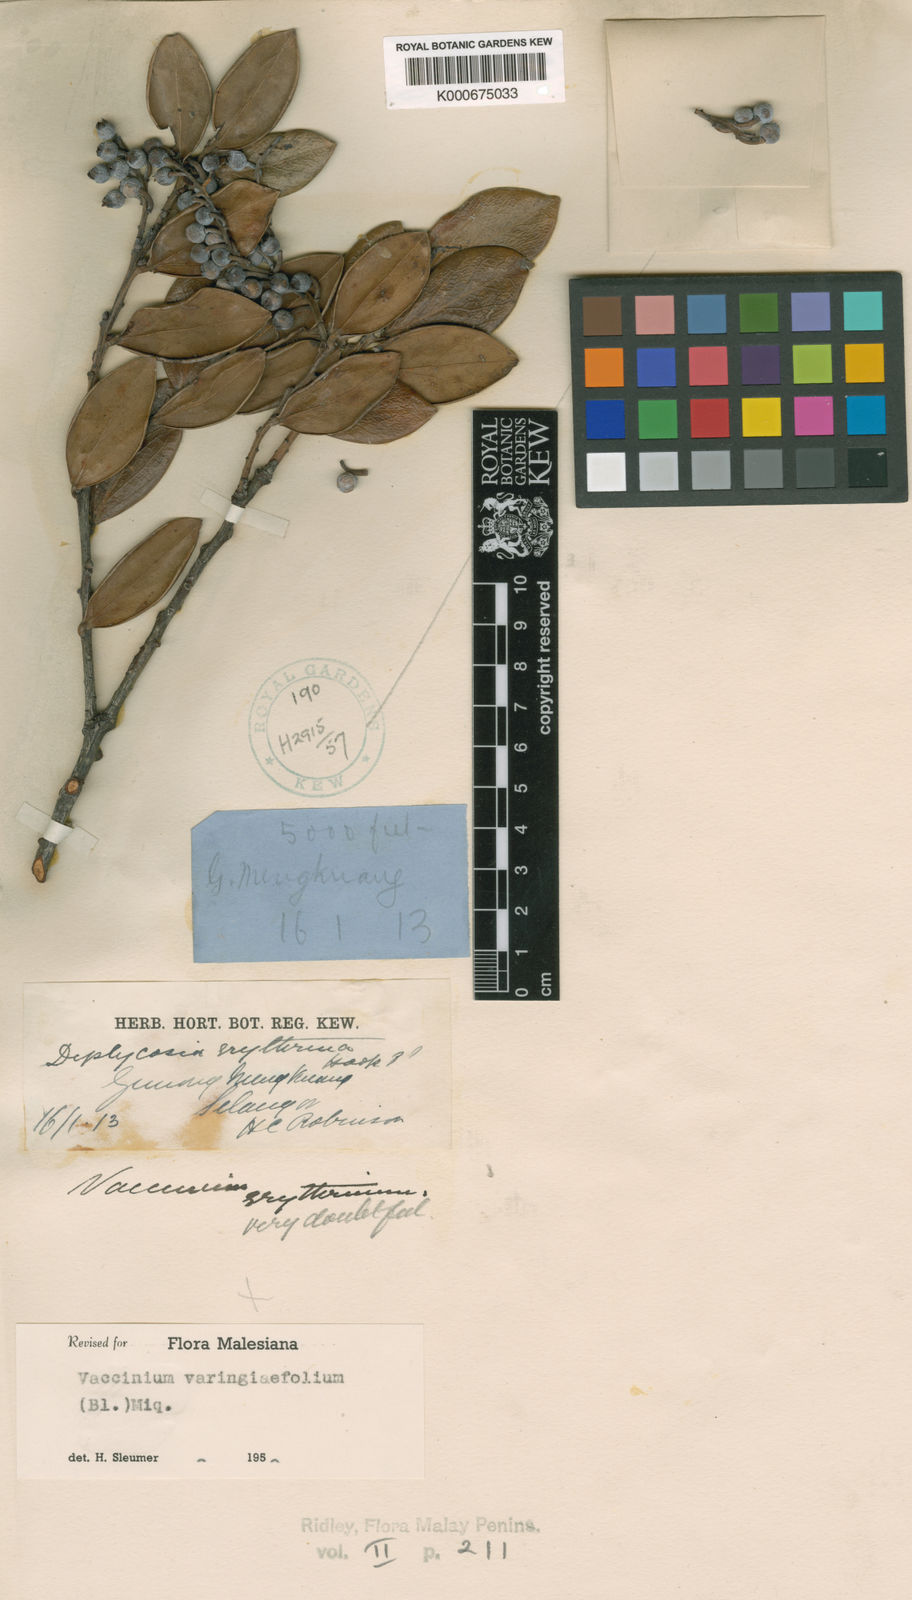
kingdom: Plantae
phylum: Tracheophyta
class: Magnoliopsida
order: Ericales
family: Ericaceae
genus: Vaccinium
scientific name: Vaccinium varingiifolium
